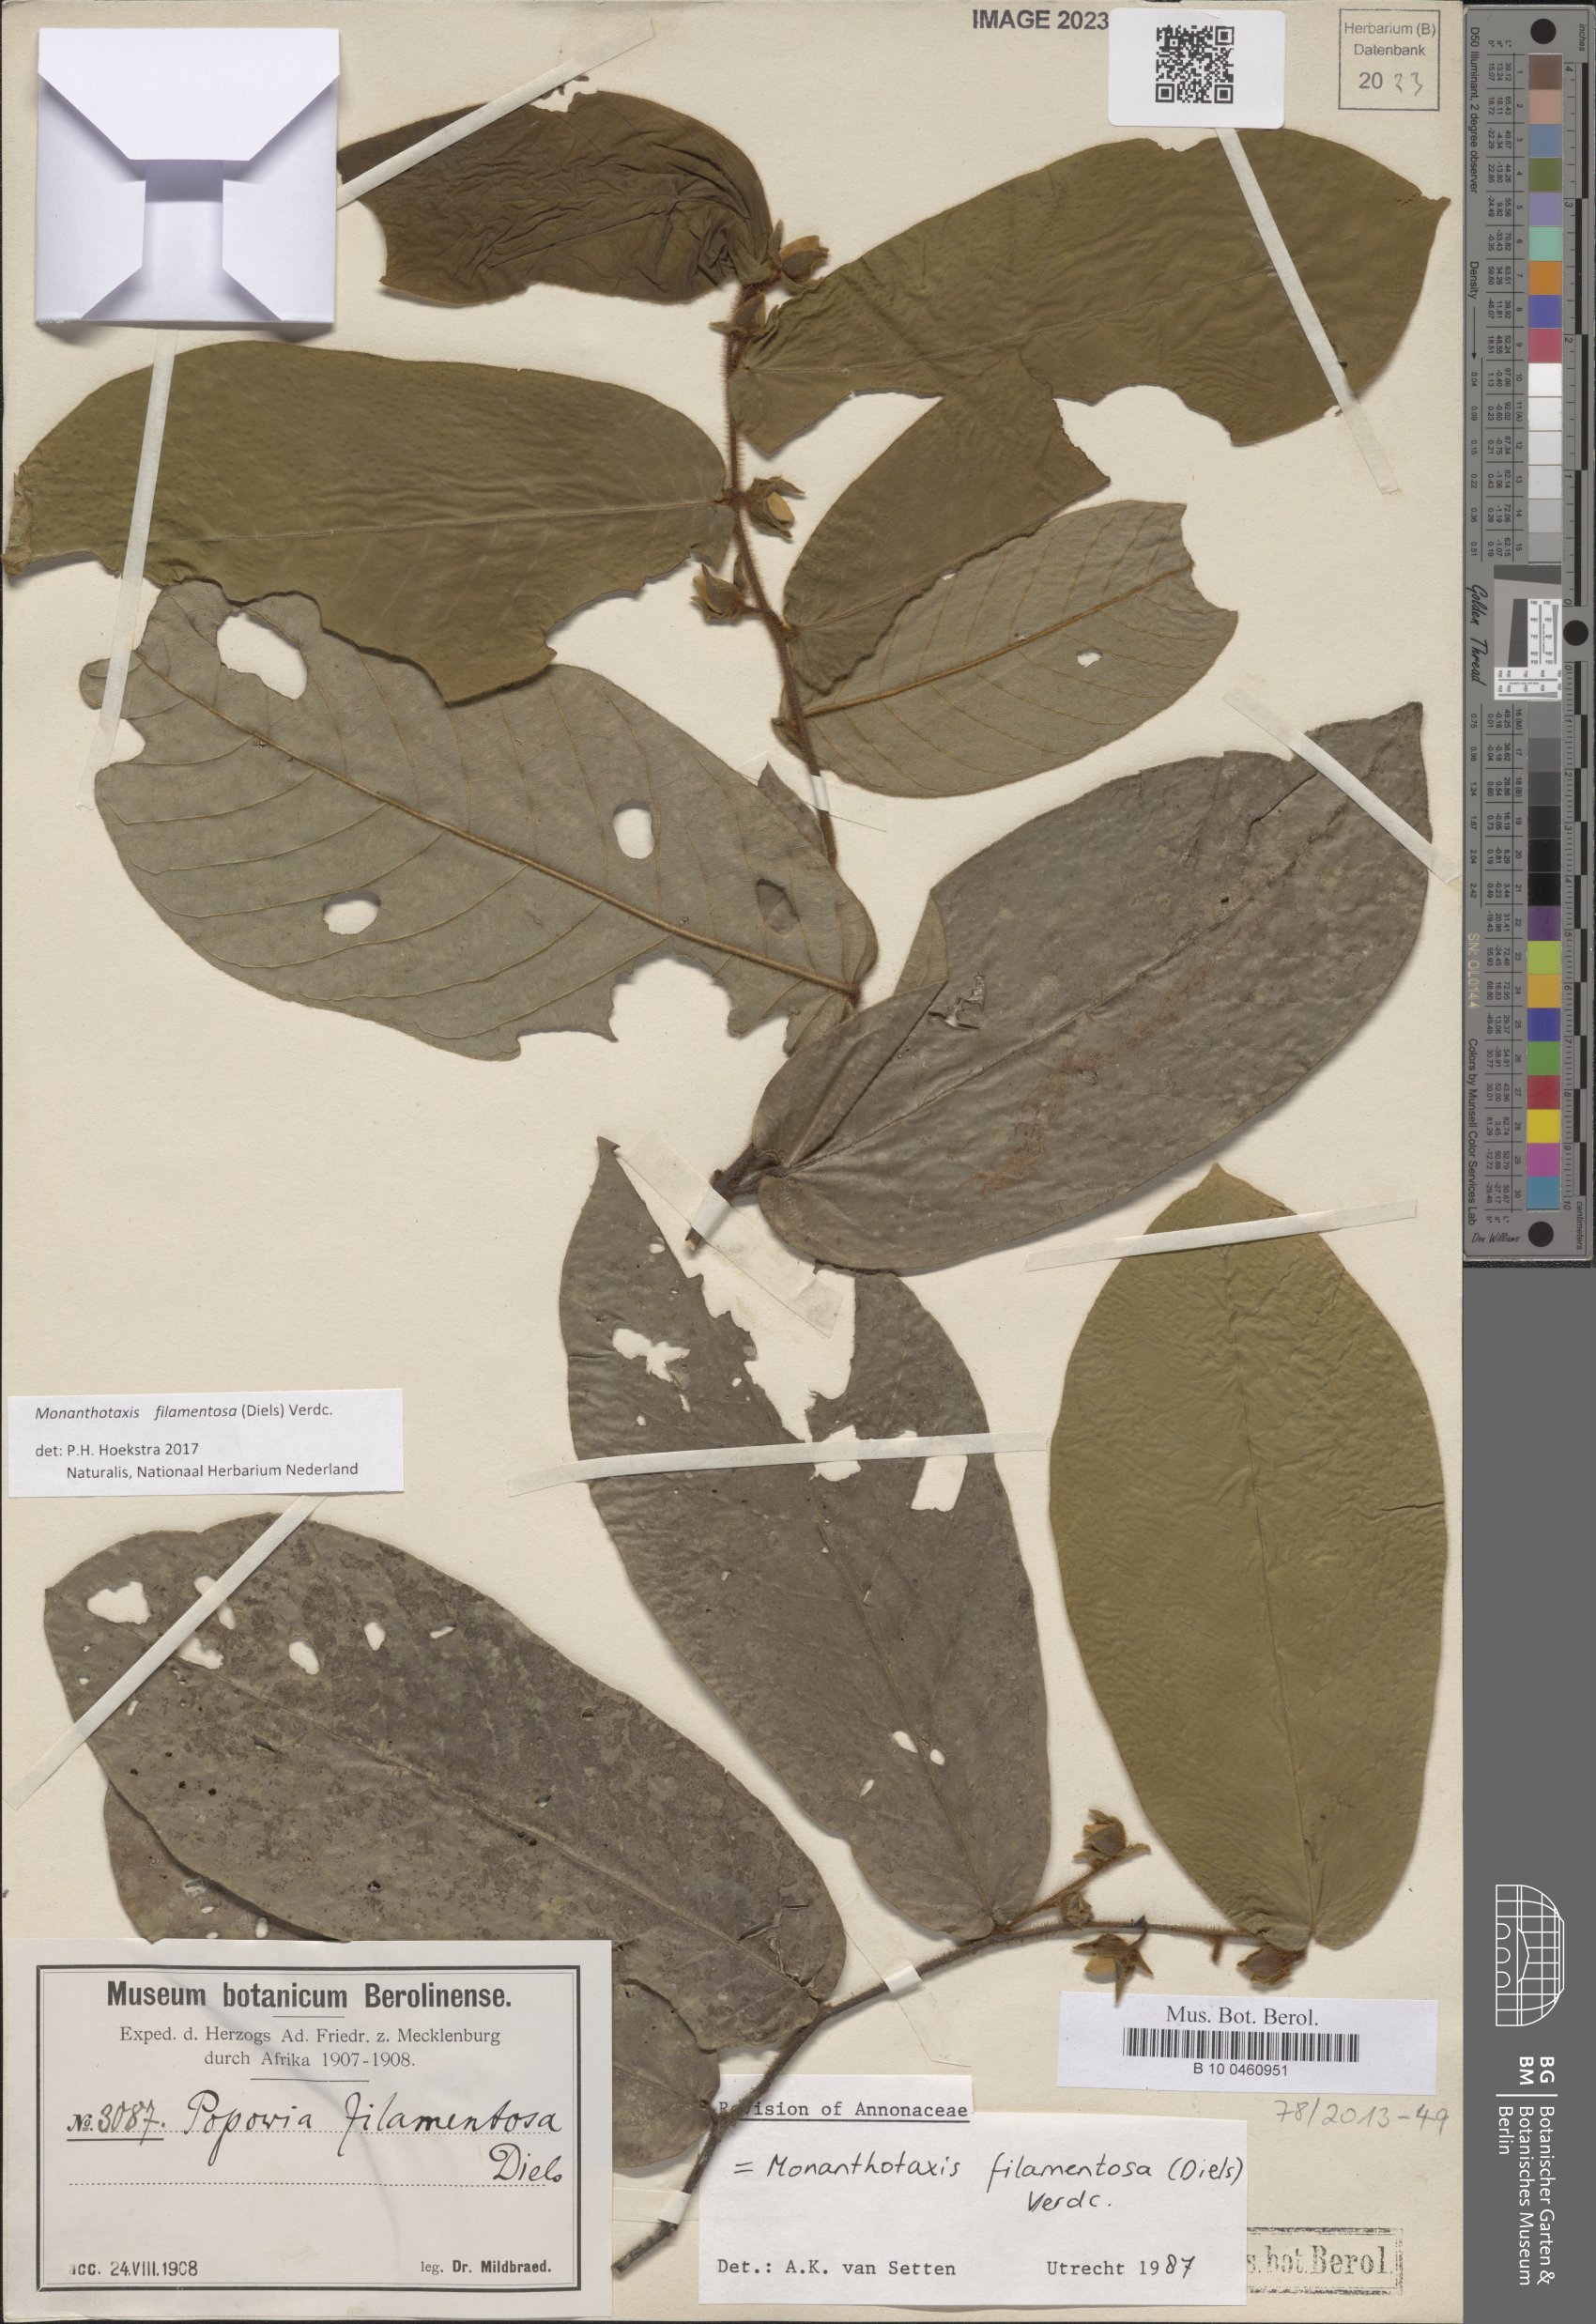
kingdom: Plantae
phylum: Tracheophyta
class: Magnoliopsida
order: Magnoliales
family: Annonaceae
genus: Monanthotaxis
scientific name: Monanthotaxis filamentosa
